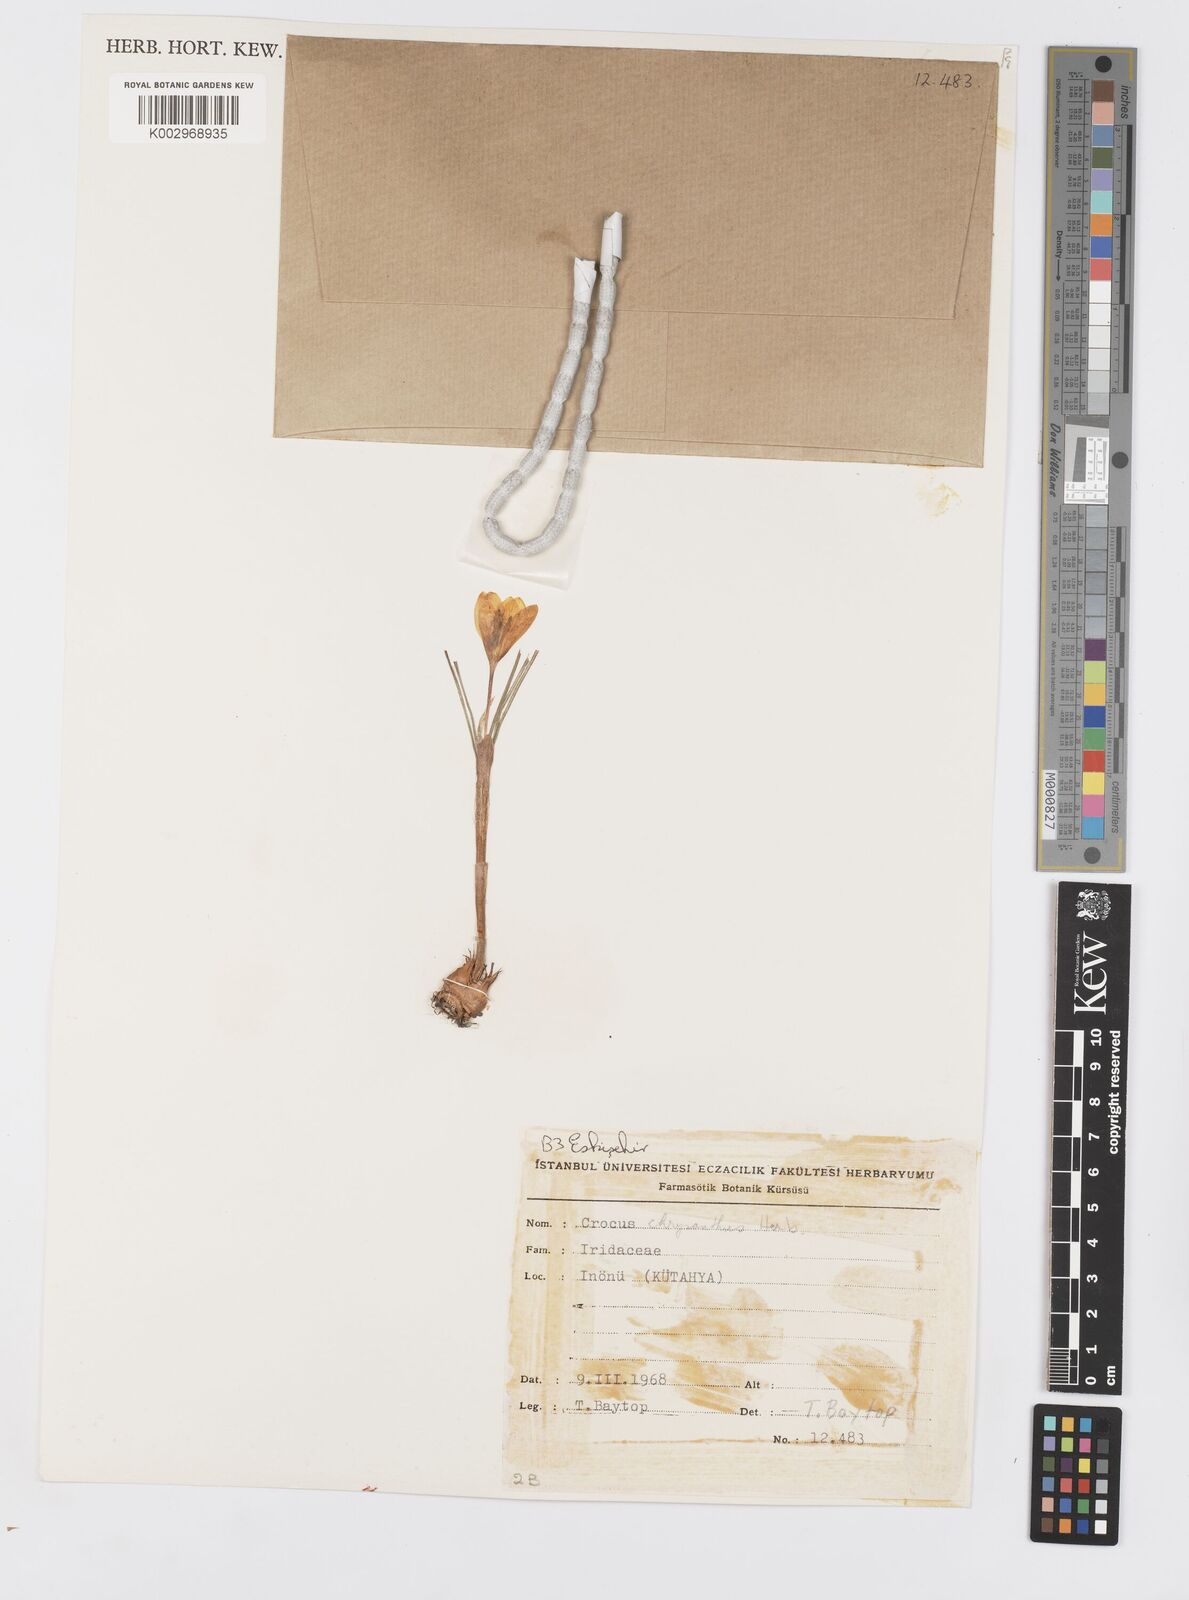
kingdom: Plantae
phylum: Tracheophyta
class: Liliopsida
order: Asparagales
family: Iridaceae
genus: Crocus
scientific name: Crocus chrysanthus
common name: Golden crocus
